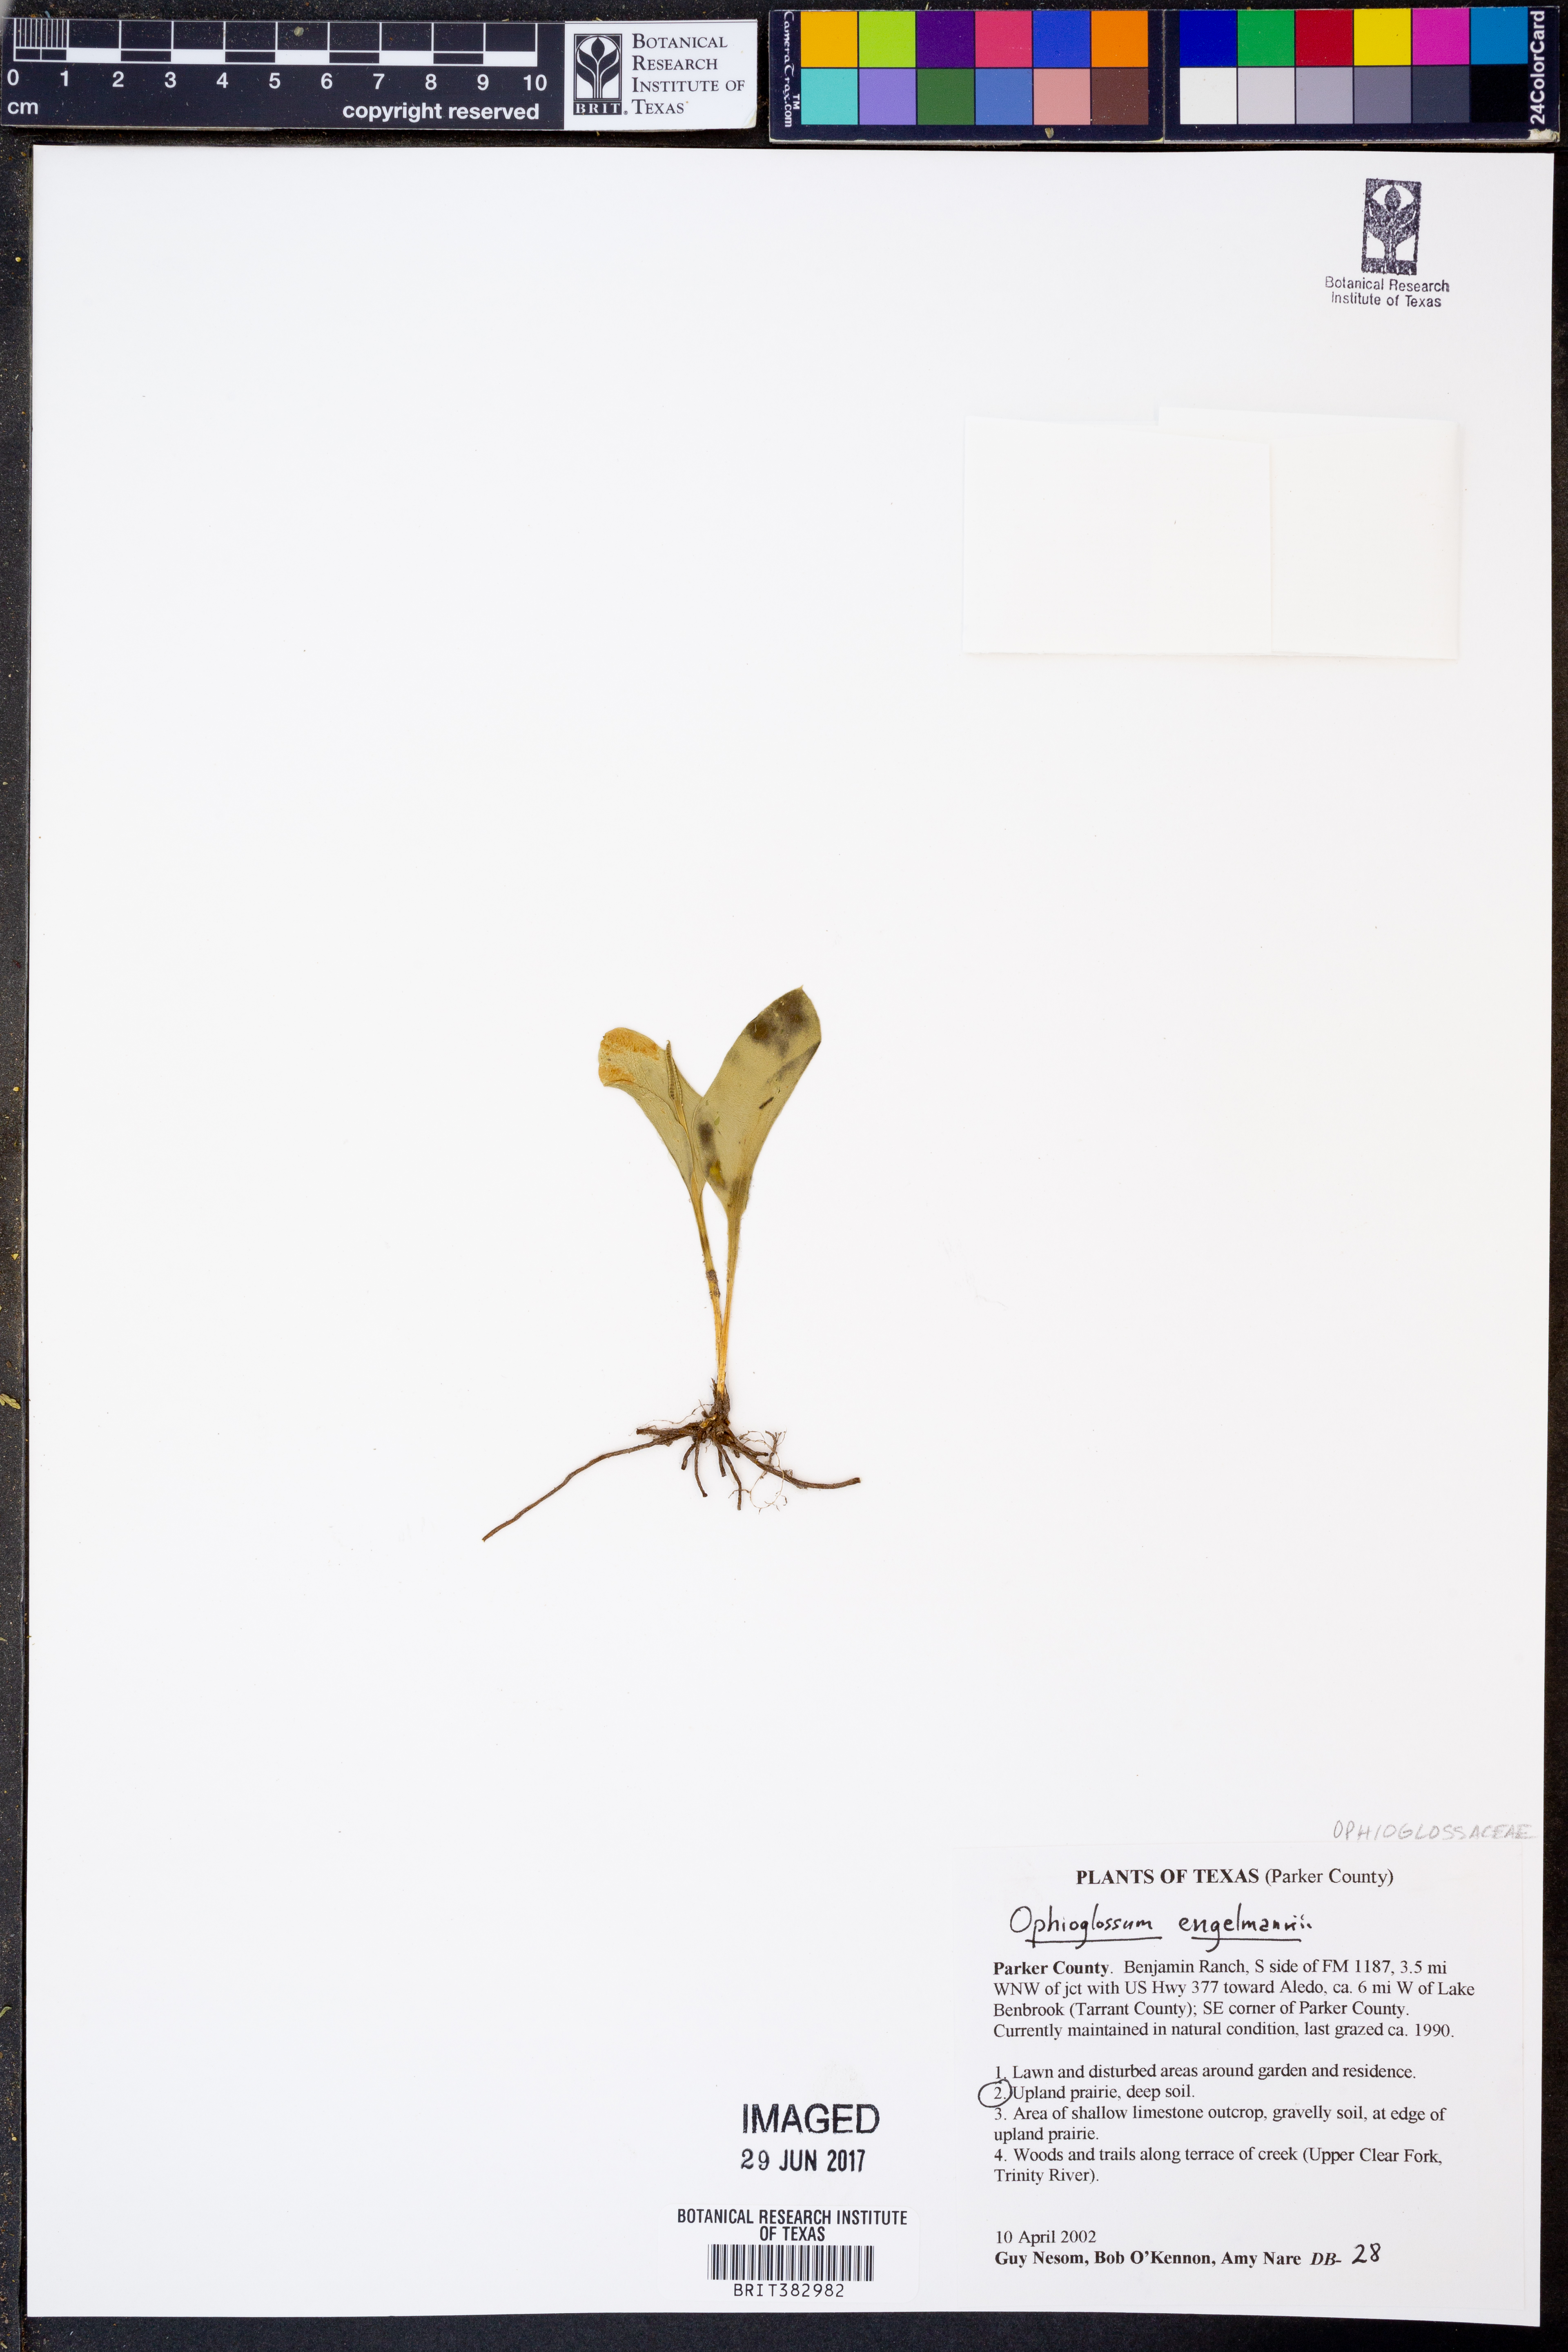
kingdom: Plantae
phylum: Tracheophyta
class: Polypodiopsida
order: Ophioglossales
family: Ophioglossaceae
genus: Ophioglossum
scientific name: Ophioglossum engelmannii
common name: Limestone adder's-tongue
